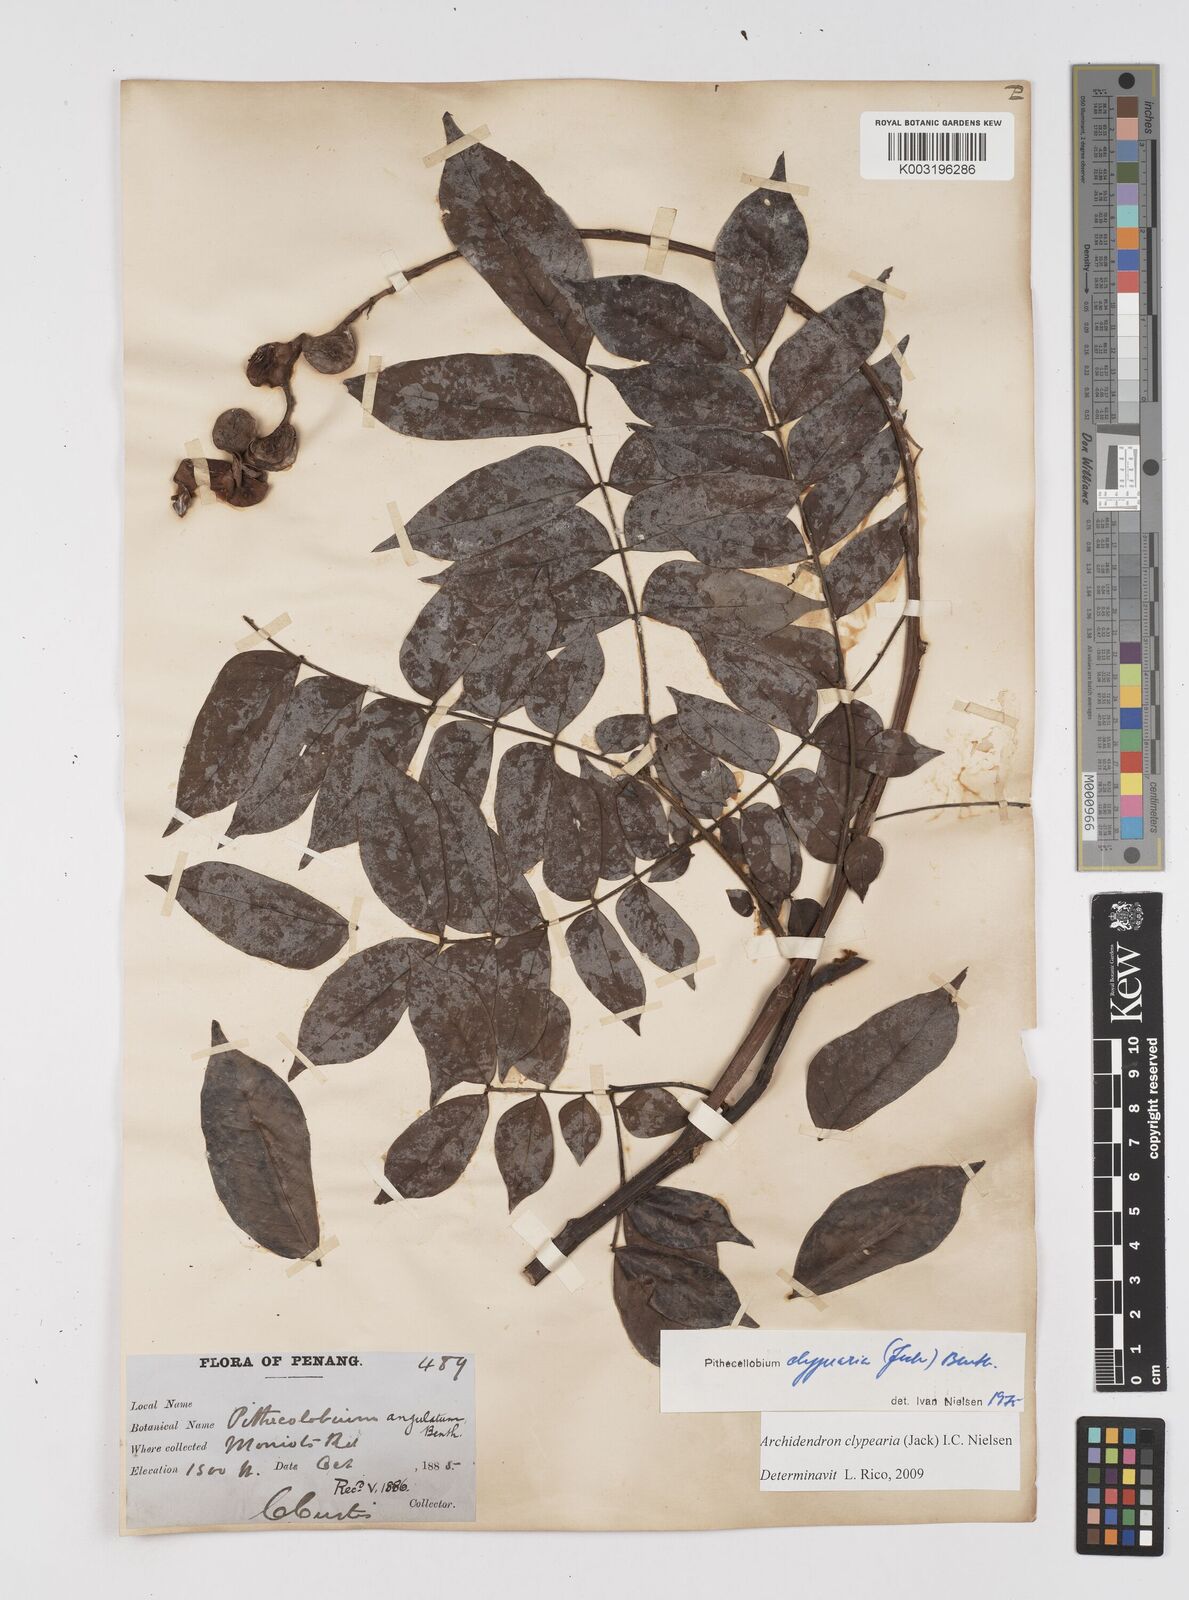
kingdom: Plantae
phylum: Tracheophyta
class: Magnoliopsida
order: Fabales
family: Fabaceae
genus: Archidendron
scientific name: Archidendron clypearia
